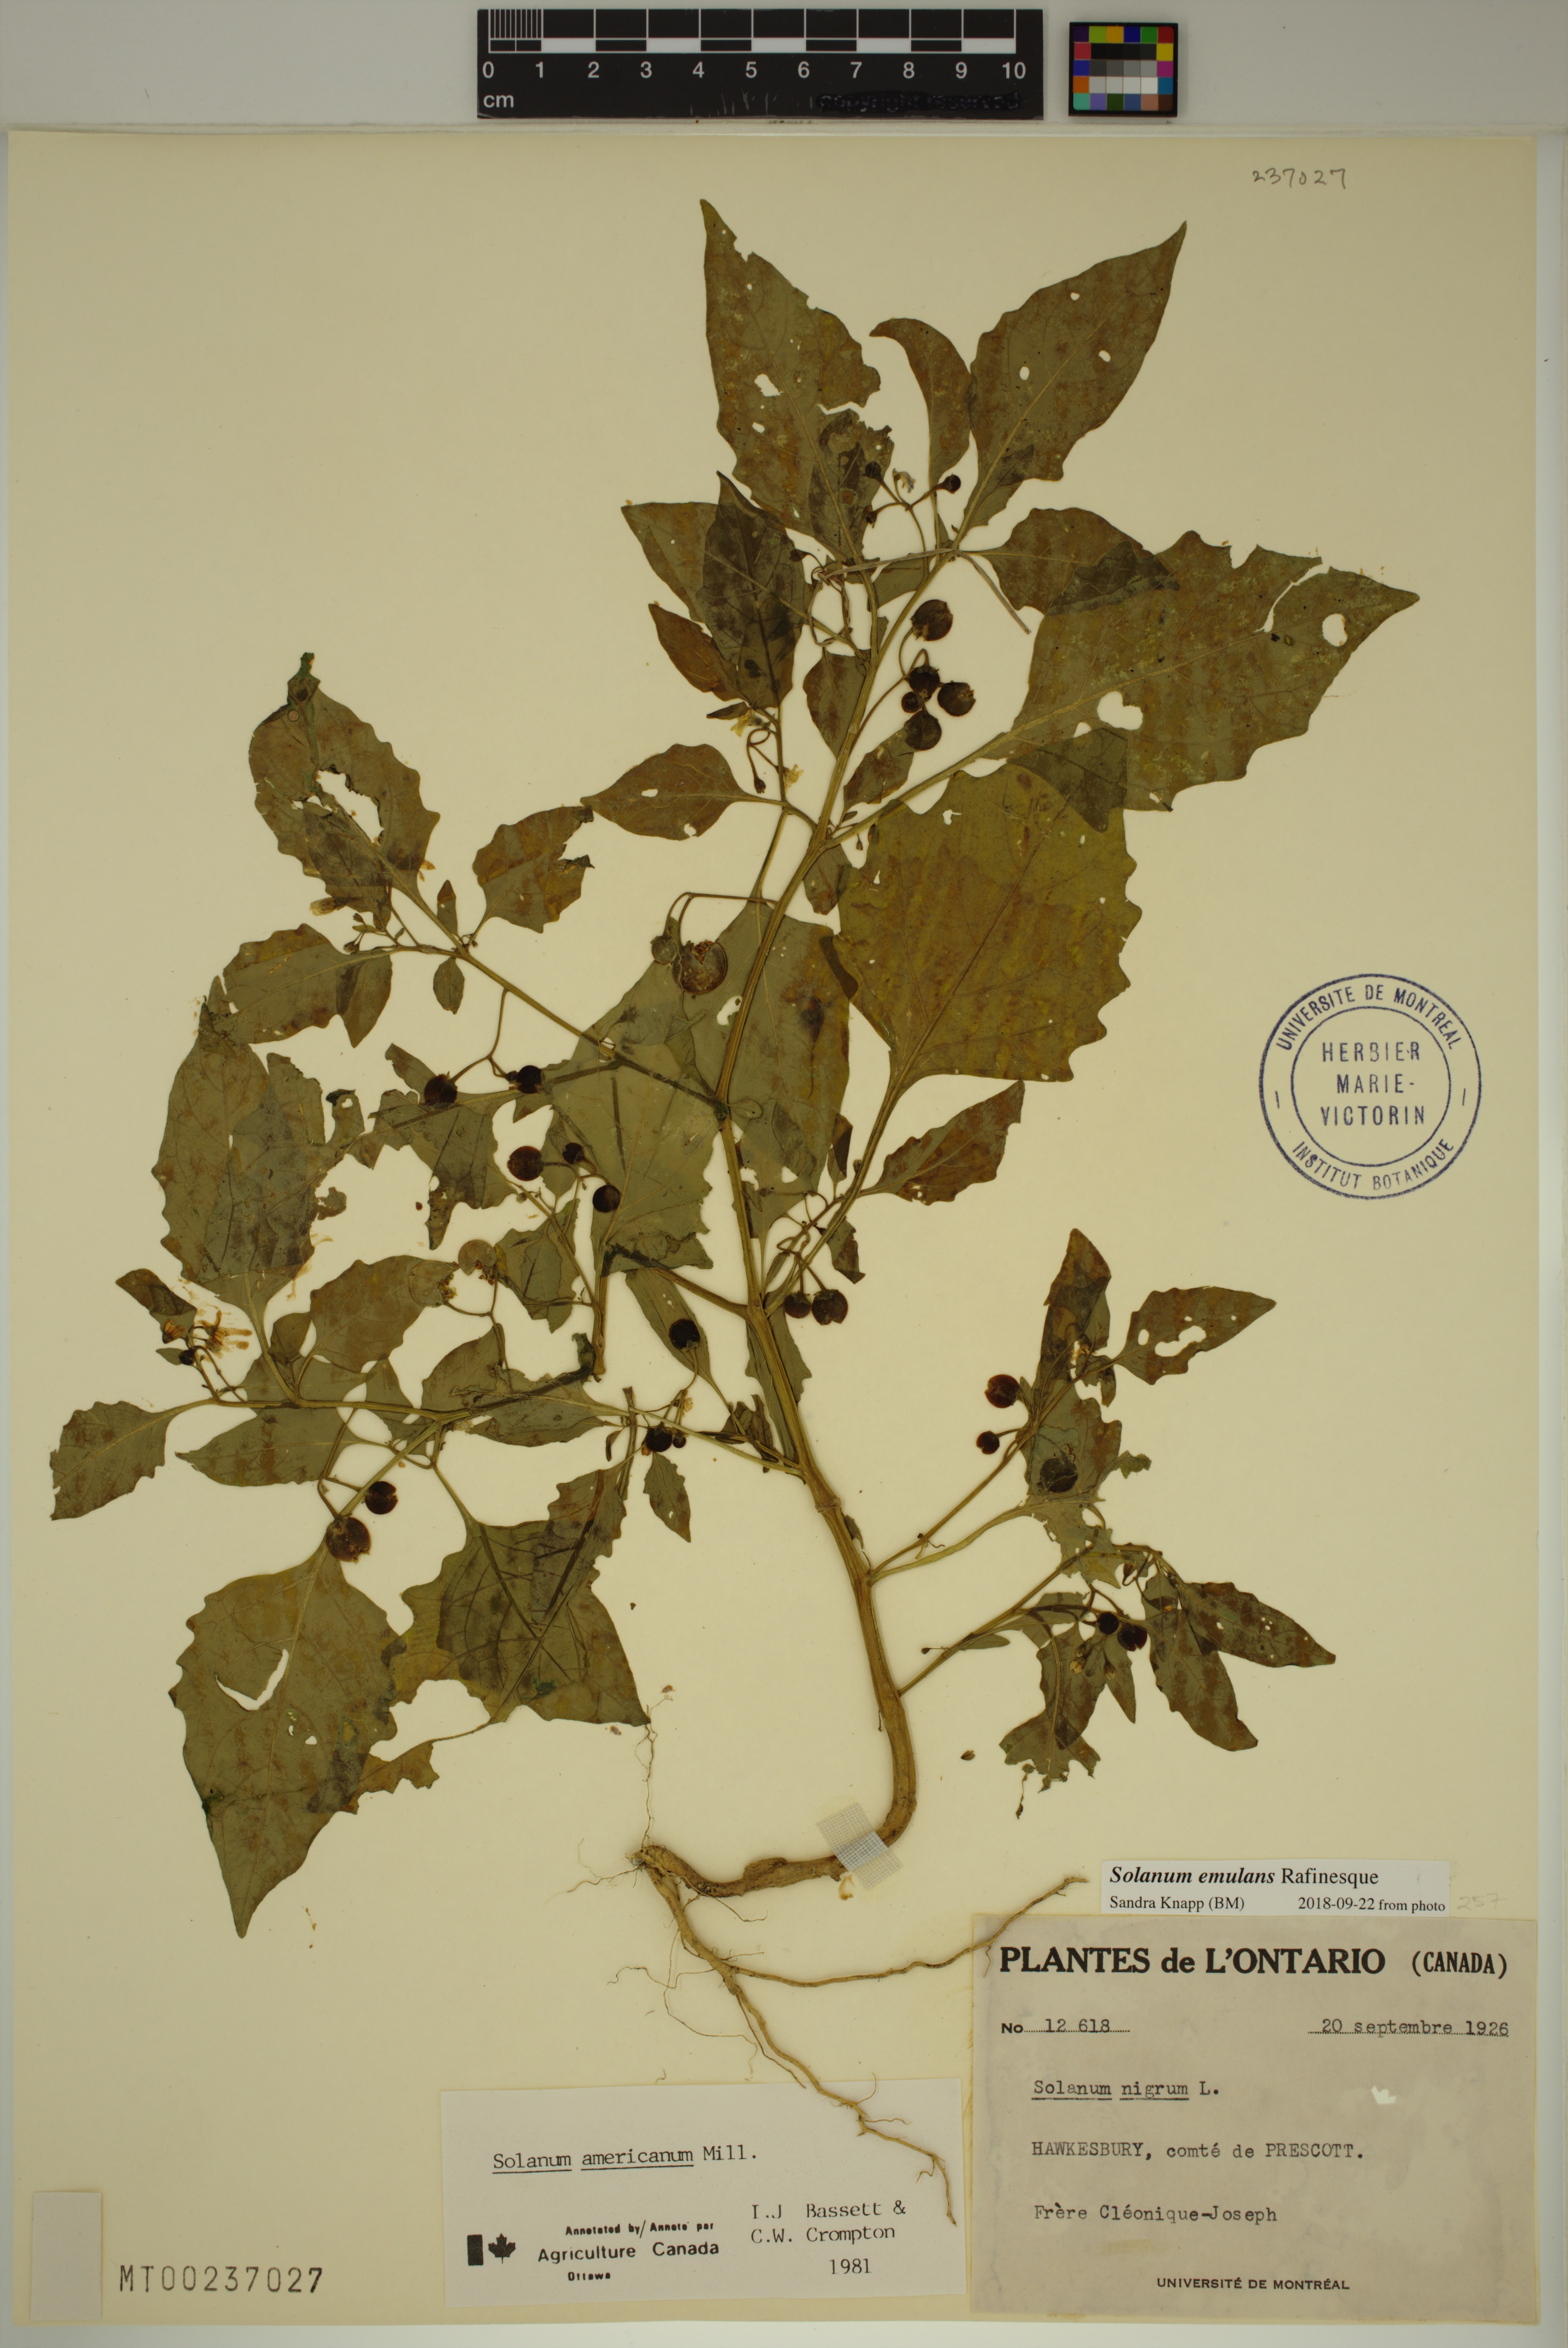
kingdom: Plantae
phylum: Tracheophyta
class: Magnoliopsida
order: Solanales
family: Solanaceae
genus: Solanum
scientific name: Solanum emulans
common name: Eastern black nightshade
